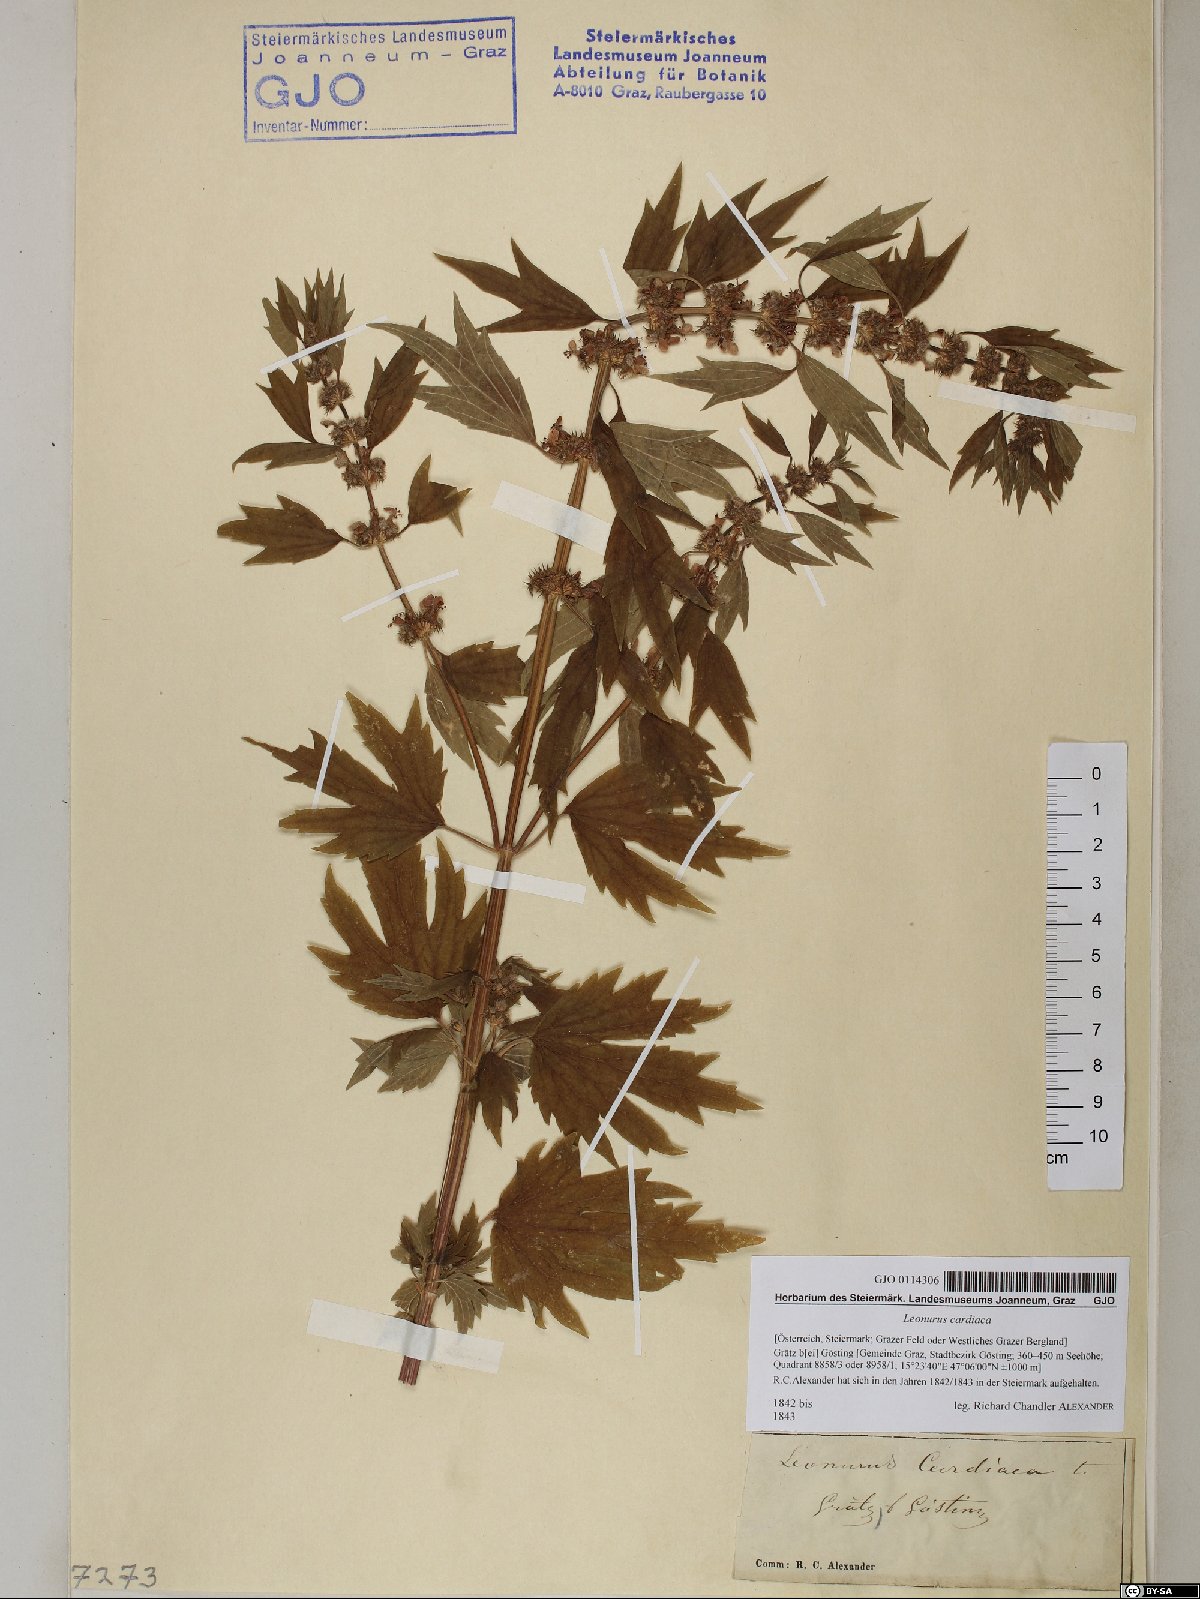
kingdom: Plantae
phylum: Tracheophyta
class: Magnoliopsida
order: Lamiales
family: Lamiaceae
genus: Leonurus
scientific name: Leonurus cardiaca
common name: Motherwort
